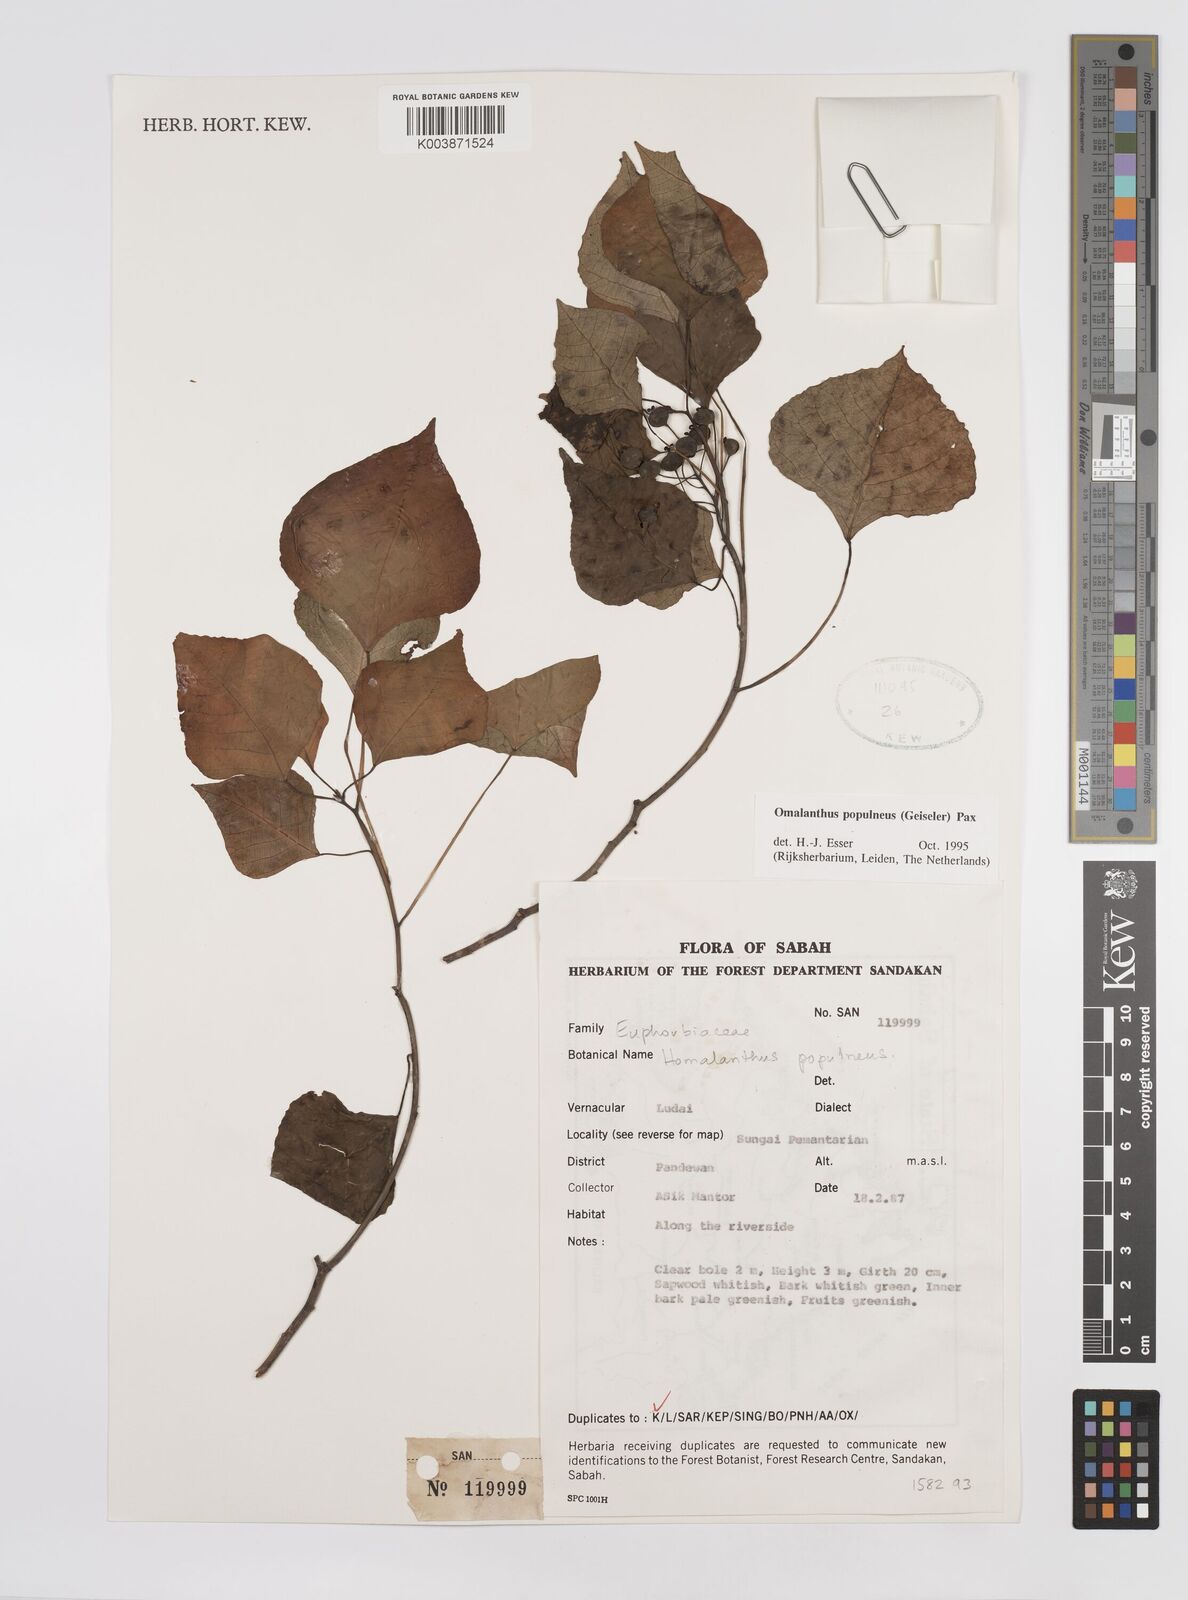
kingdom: Plantae
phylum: Tracheophyta
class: Magnoliopsida
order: Malpighiales
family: Euphorbiaceae
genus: Homalanthus
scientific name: Homalanthus populneus
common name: Spurge
